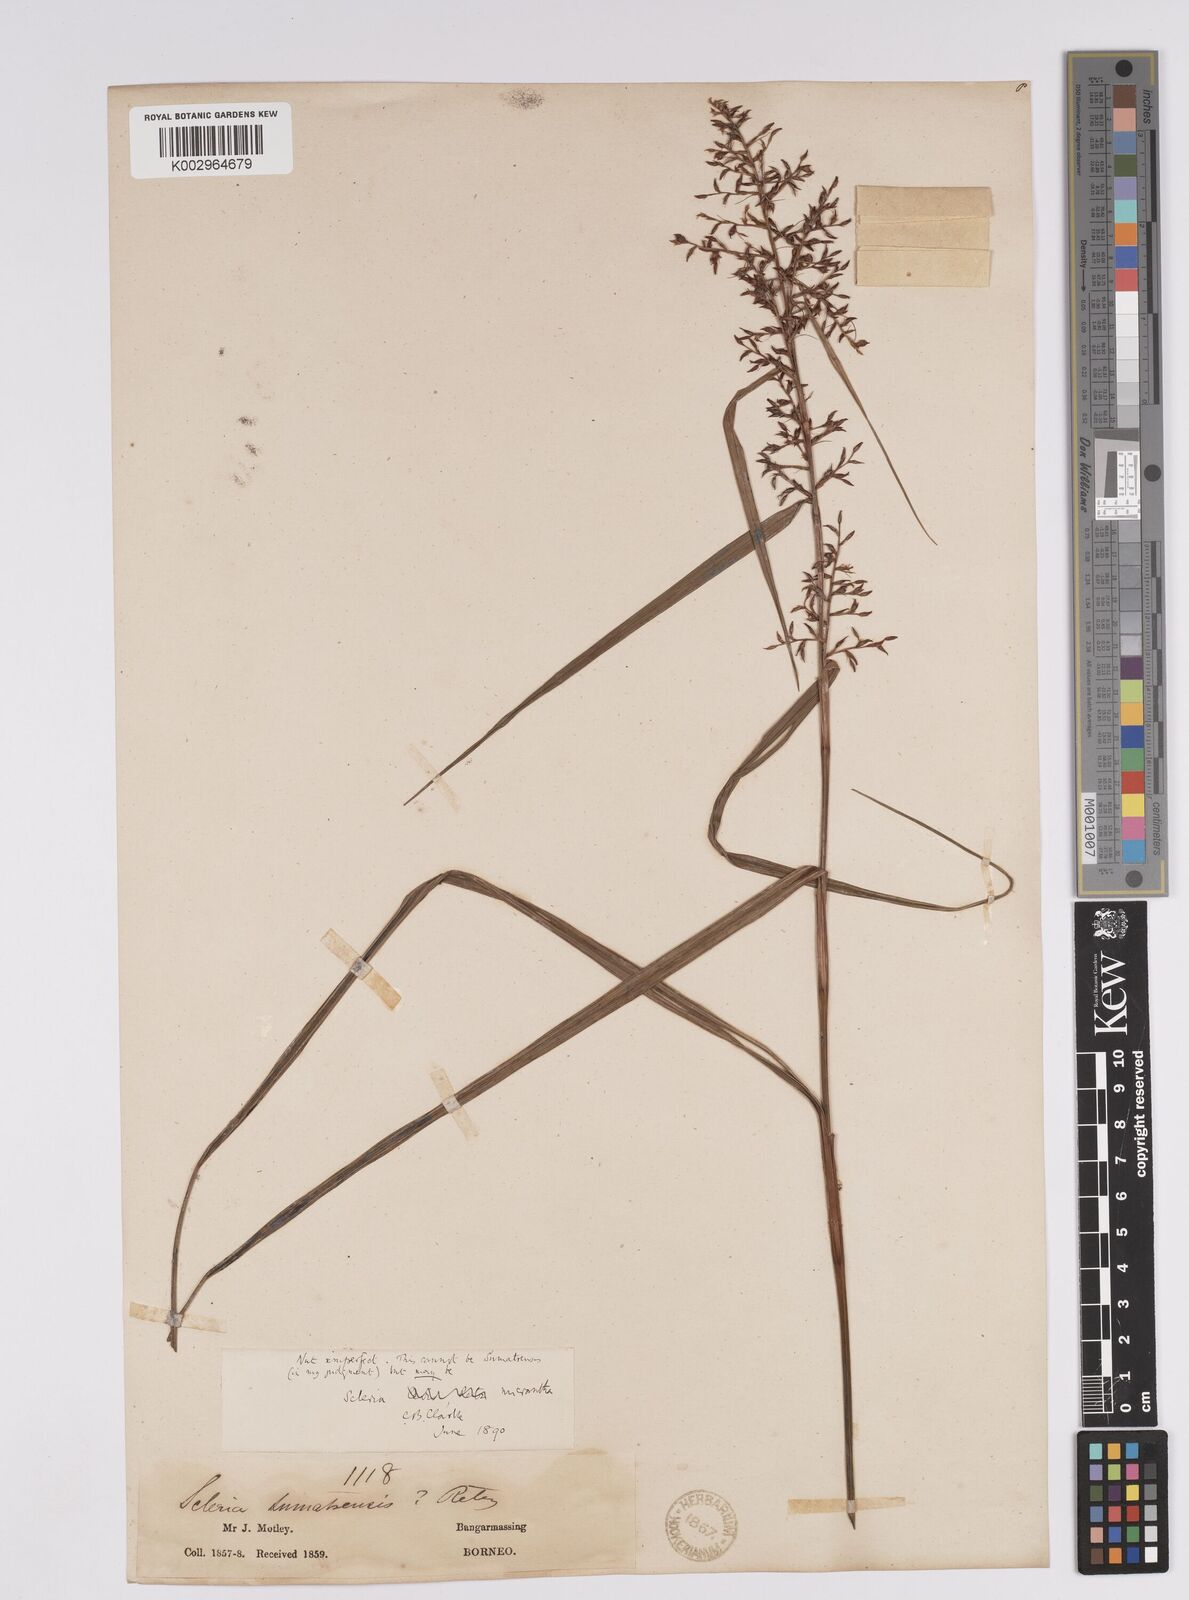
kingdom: Plantae
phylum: Tracheophyta
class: Liliopsida
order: Poales
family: Cyperaceae
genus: Scleria
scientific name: Scleria
